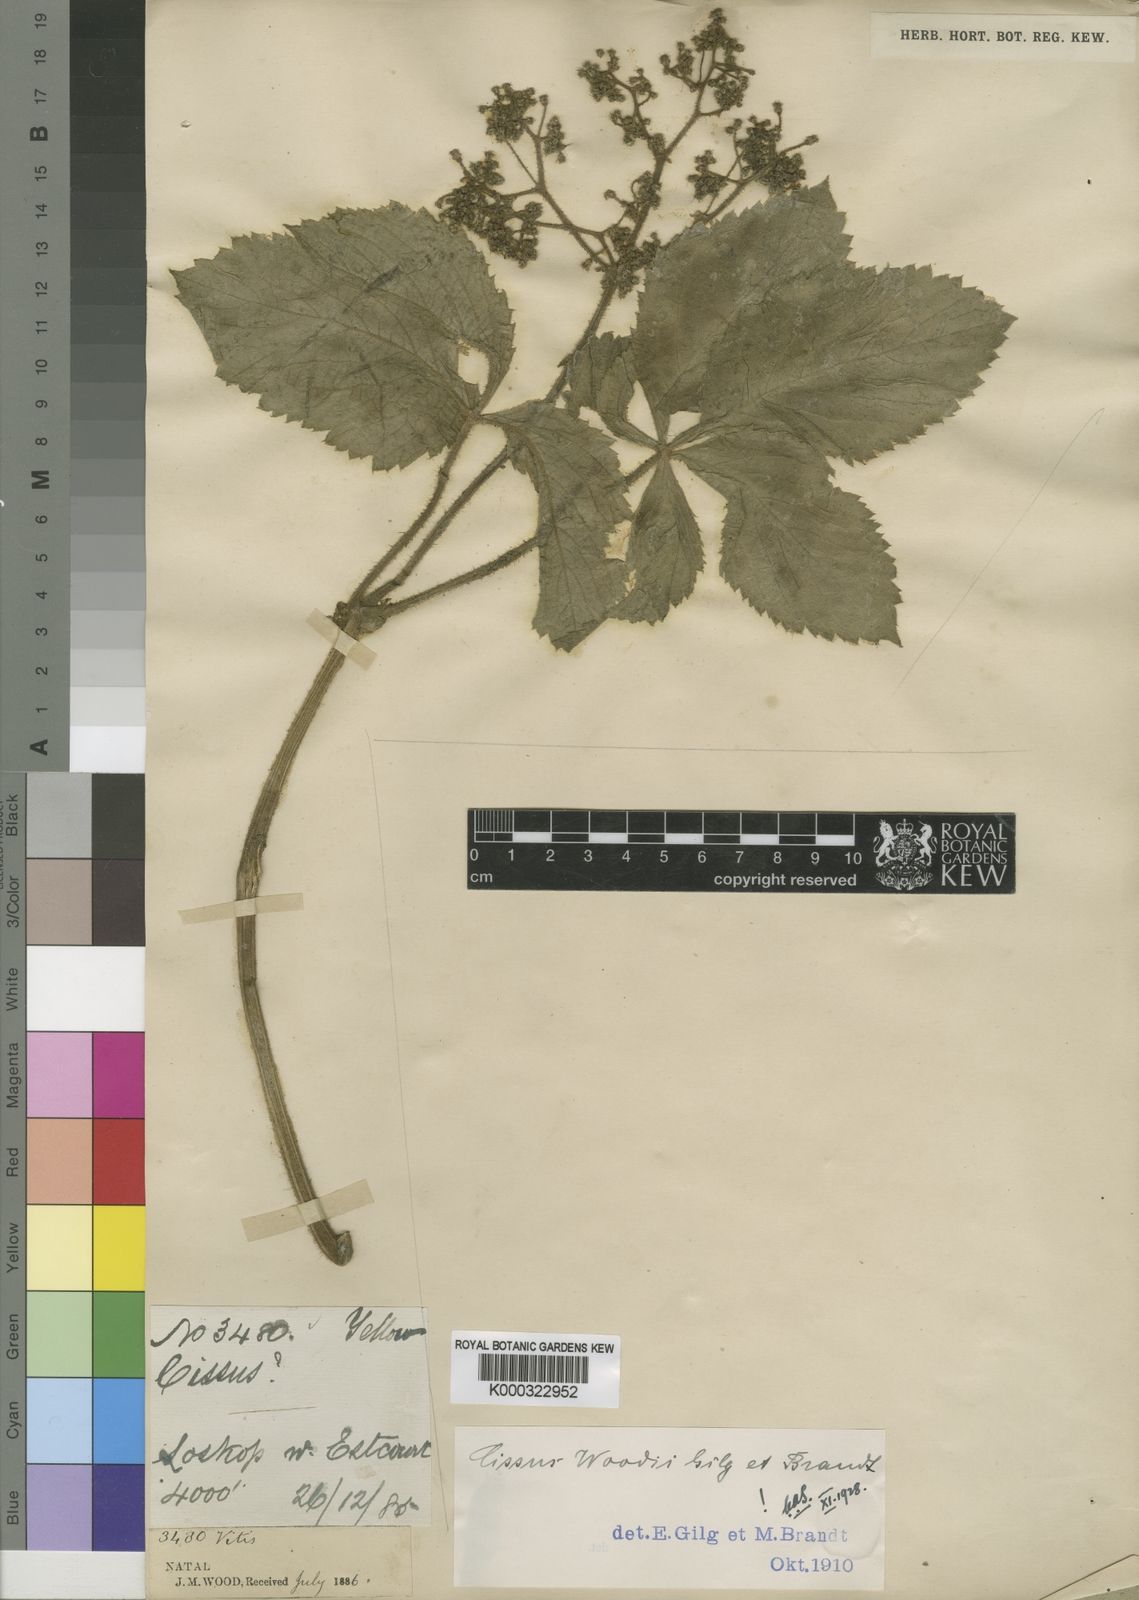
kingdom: Plantae
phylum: Tracheophyta
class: Magnoliopsida
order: Vitales
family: Vitaceae
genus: Cyphostemma
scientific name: Cyphostemma woodii
